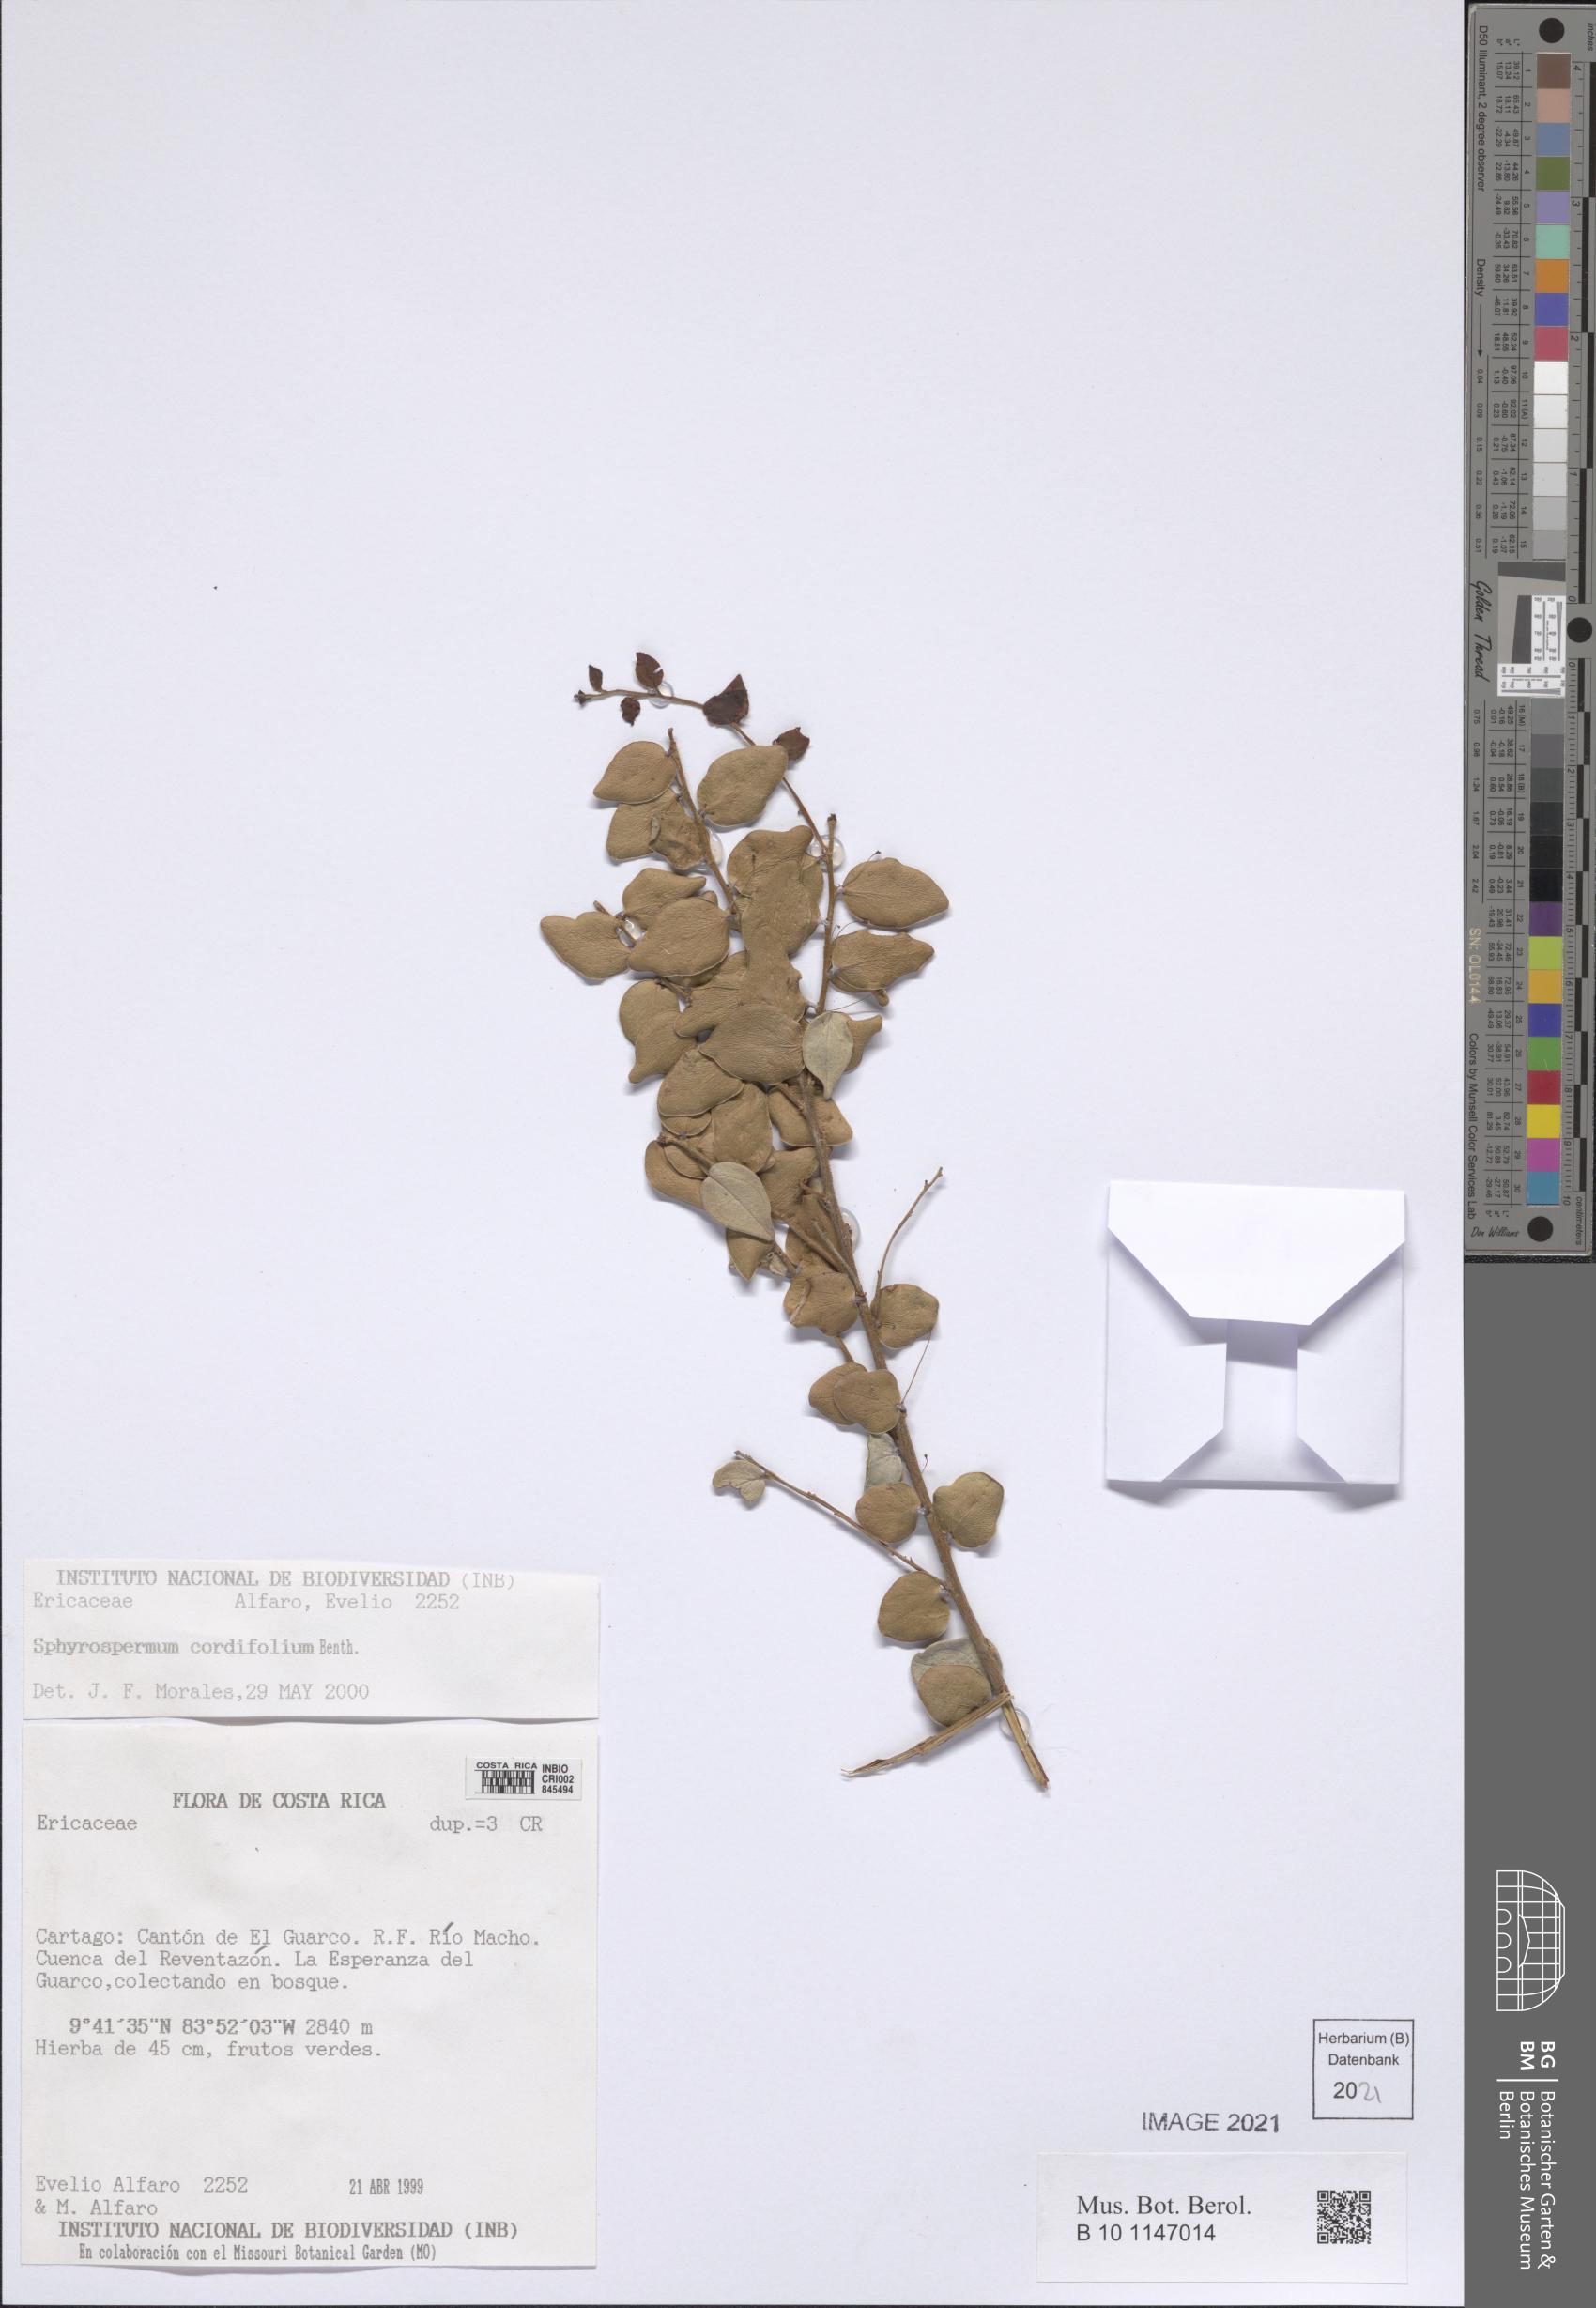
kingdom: Plantae
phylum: Tracheophyta
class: Magnoliopsida
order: Ericales
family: Ericaceae
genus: Gaultheria
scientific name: Gaultheria gracilis
